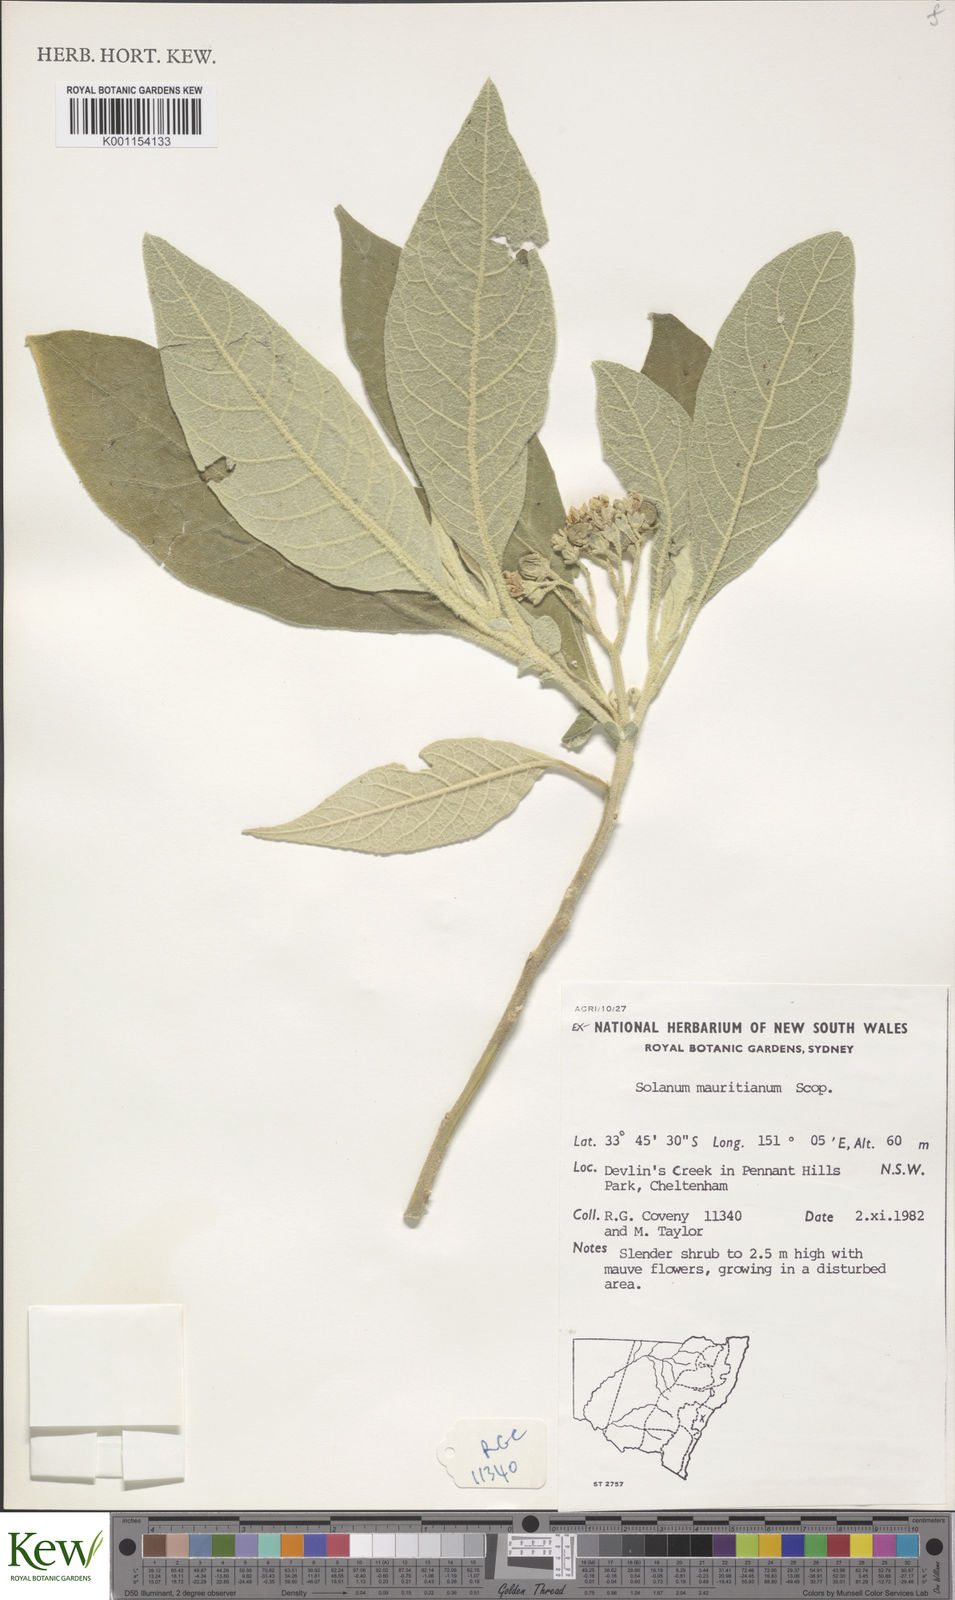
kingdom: Plantae
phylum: Tracheophyta
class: Magnoliopsida
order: Solanales
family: Solanaceae
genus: Solanum
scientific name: Solanum mauritianum
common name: Earleaf nightshade
